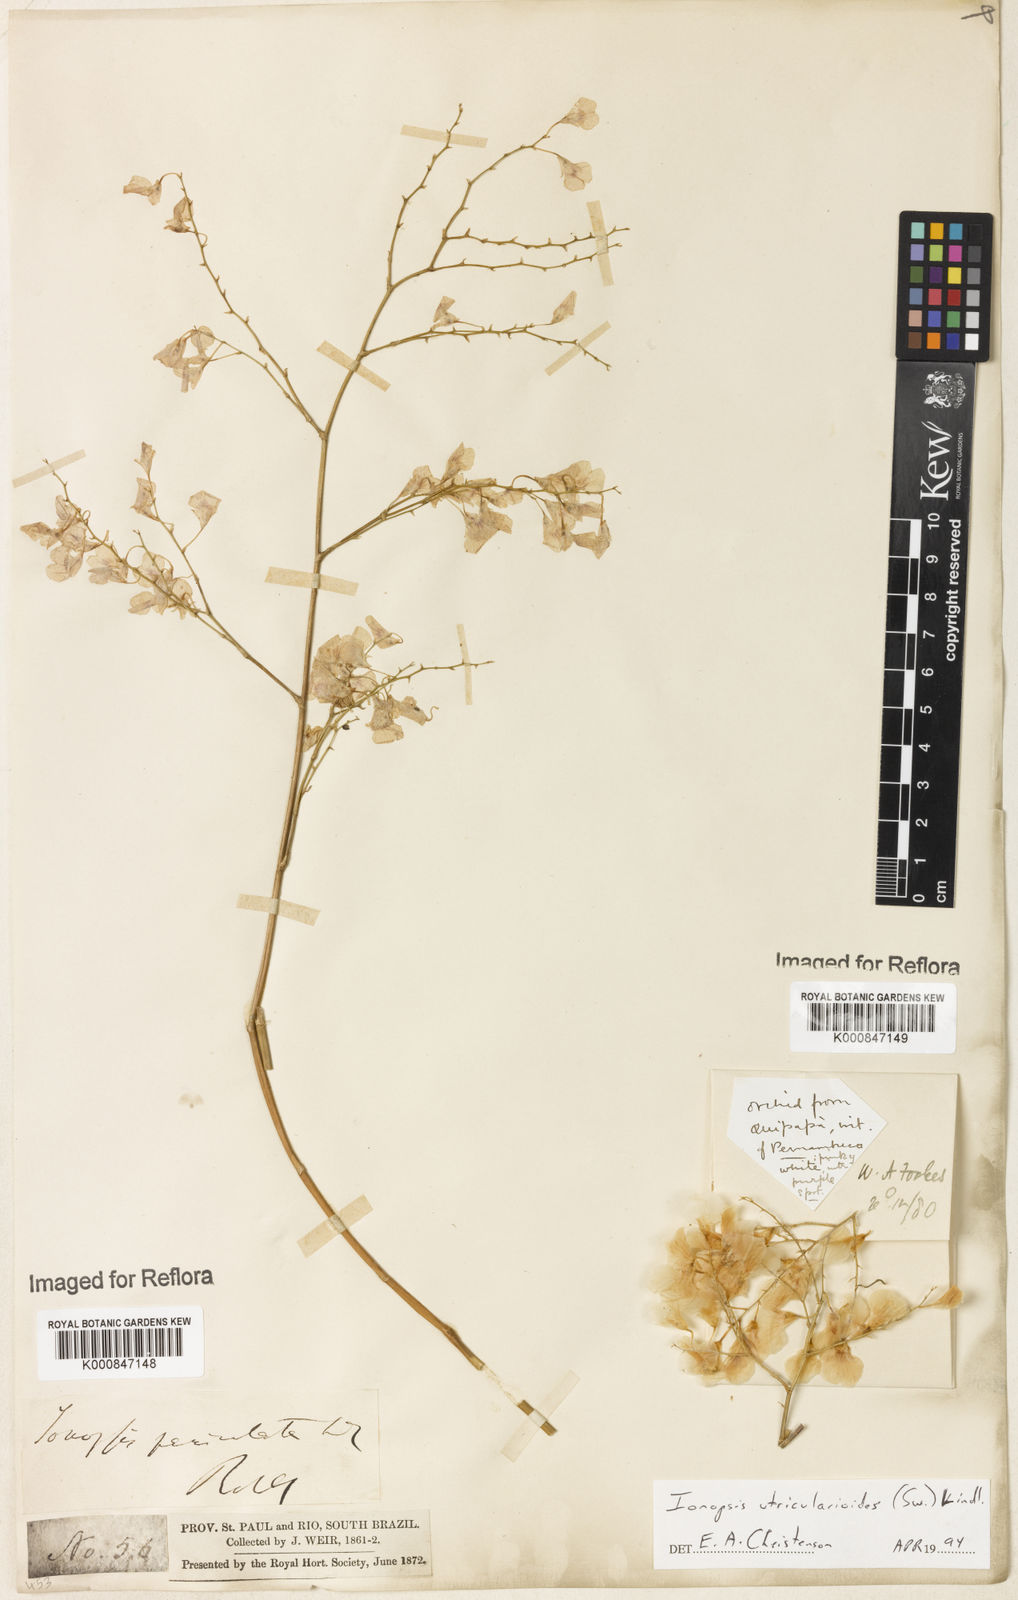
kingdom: Plantae
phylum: Tracheophyta
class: Liliopsida
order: Asparagales
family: Orchidaceae
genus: Ionopsis
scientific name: Ionopsis utricularioides
